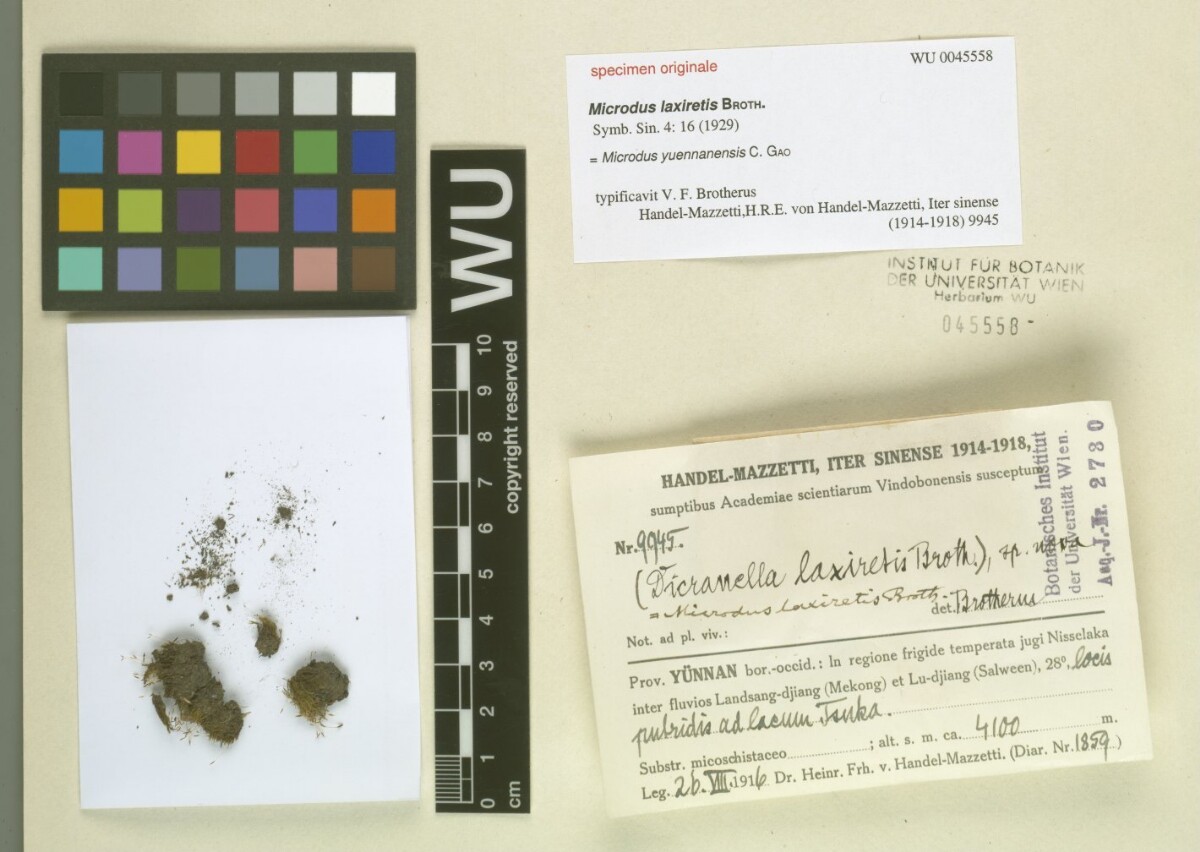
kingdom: Plantae
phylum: Bryophyta
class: Bryopsida
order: Dicranales
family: Dicranellaceae
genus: Leptotrichella
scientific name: Leptotrichella yuennanensis
